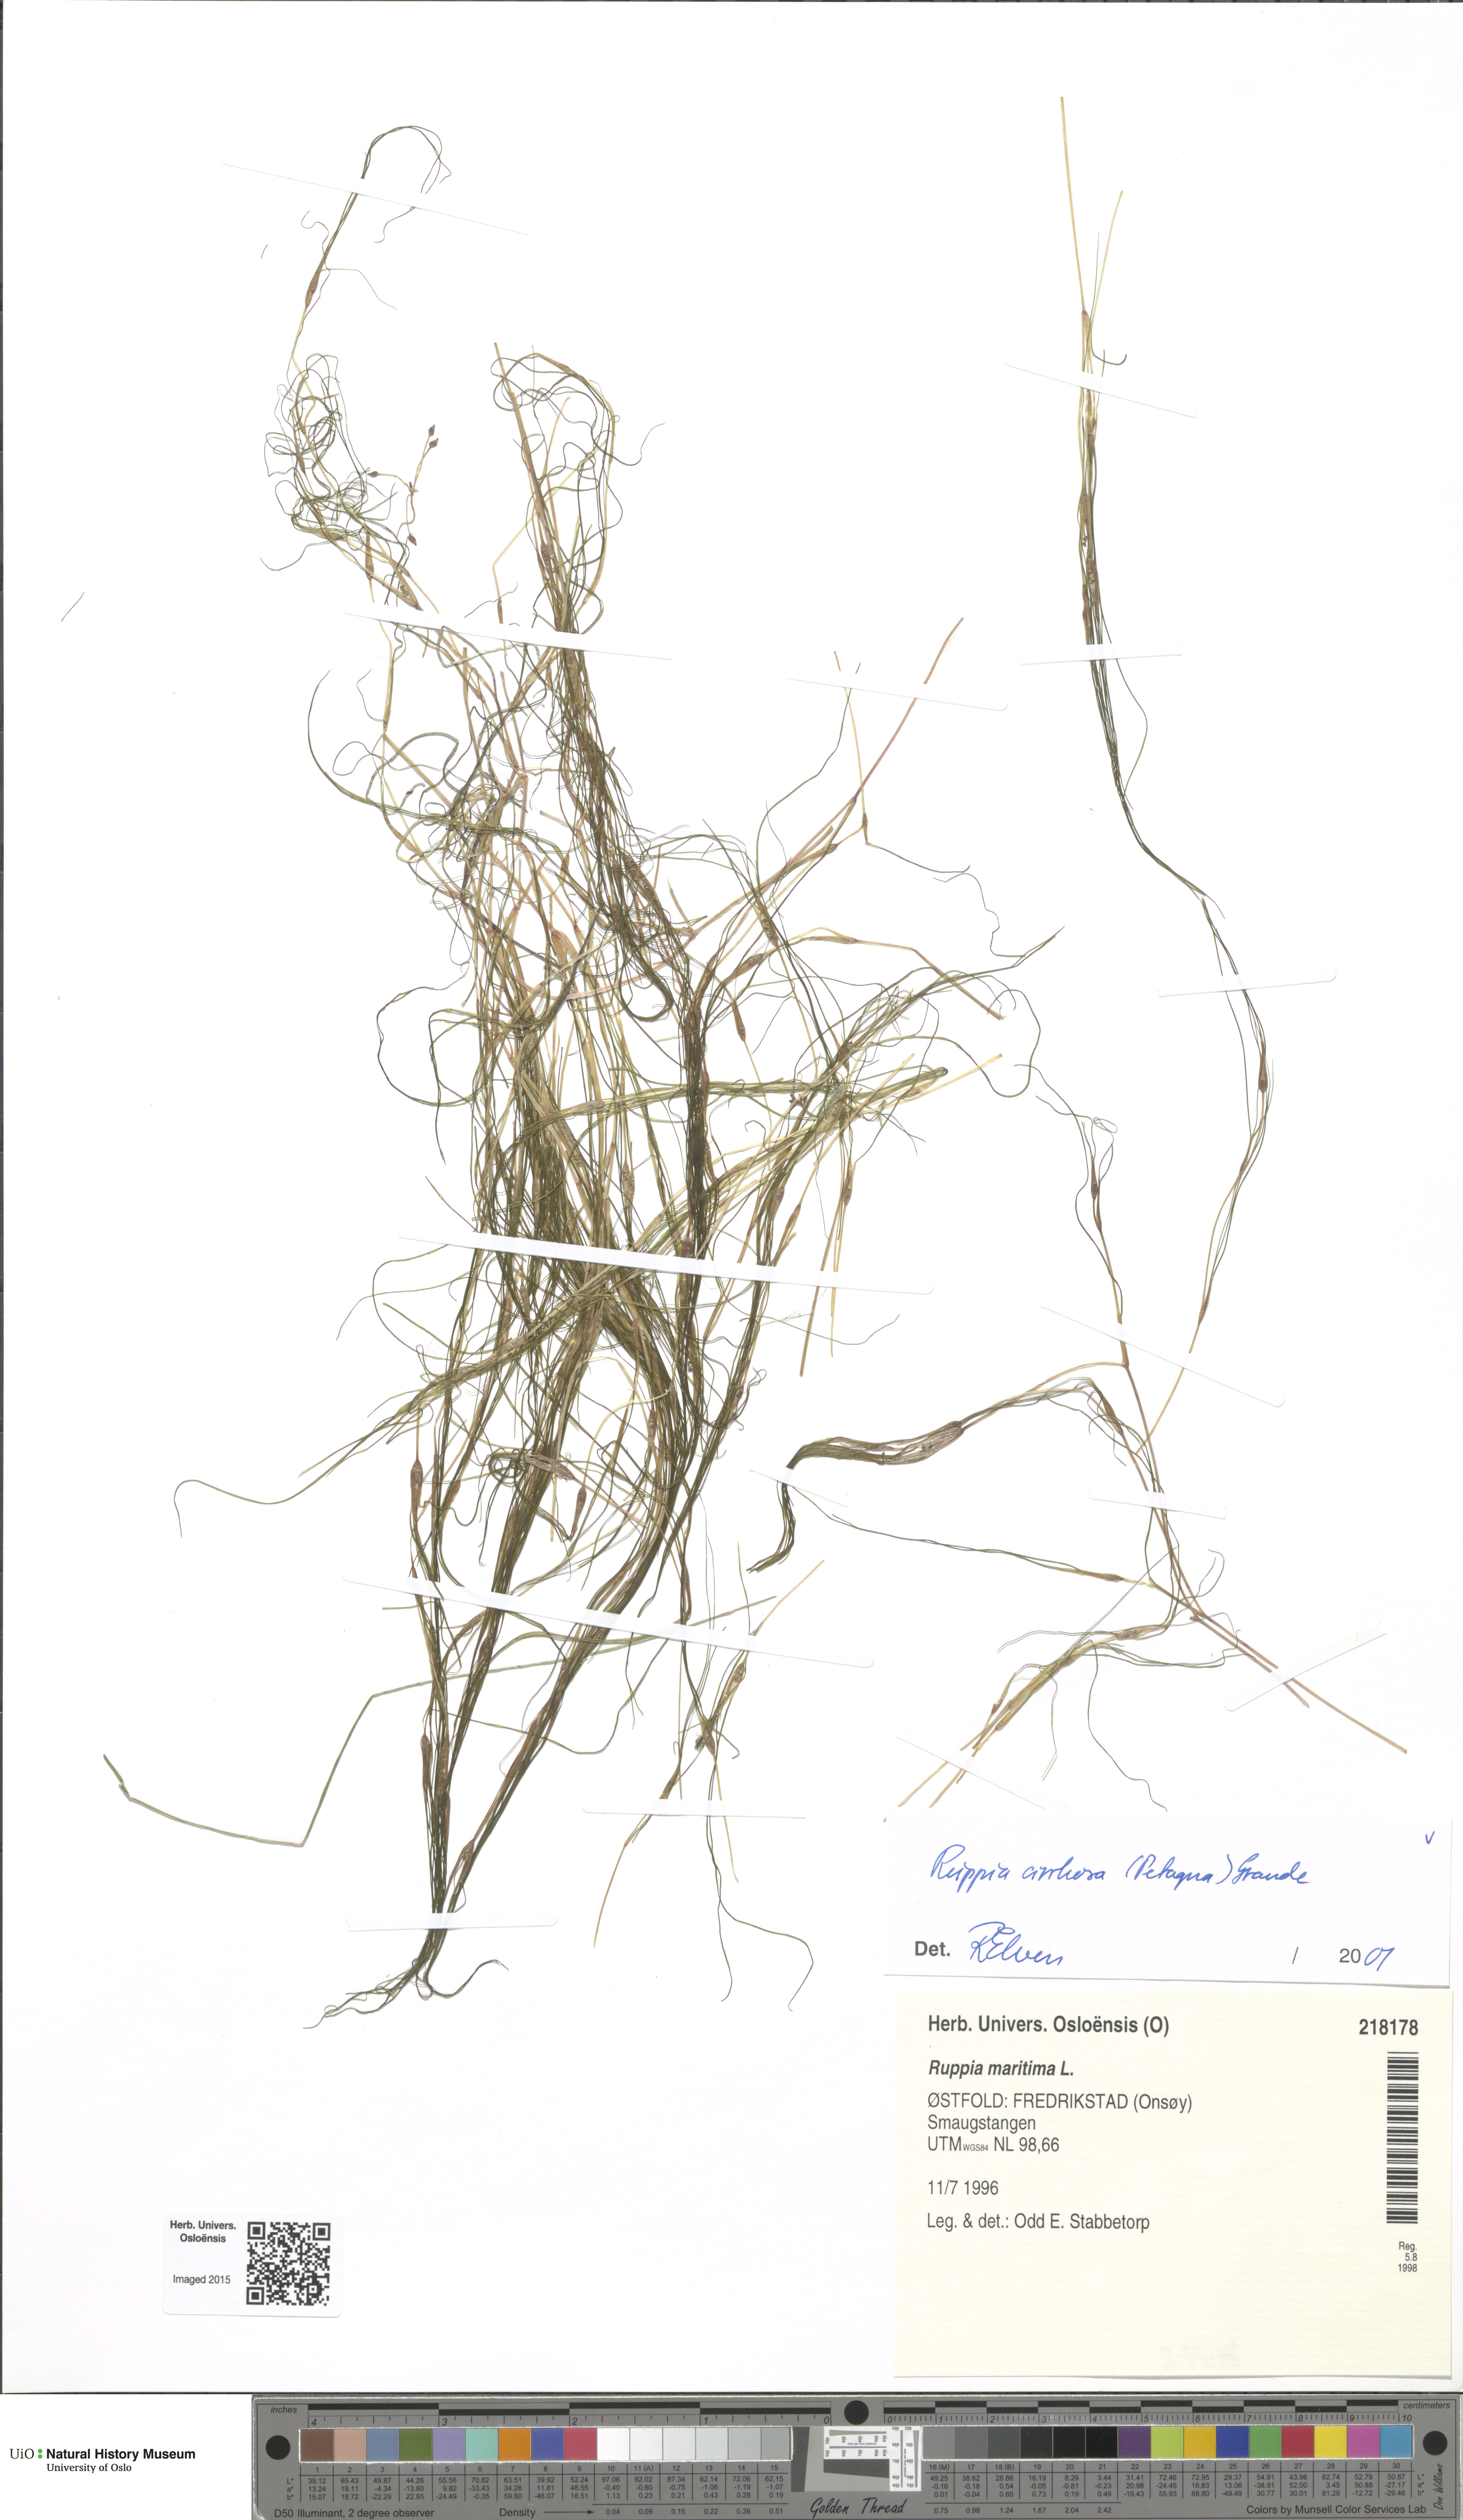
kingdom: Plantae
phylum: Tracheophyta
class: Liliopsida
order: Alismatales
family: Ruppiaceae
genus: Ruppia
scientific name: Ruppia cirrhosa
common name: Spiral tasselweed
